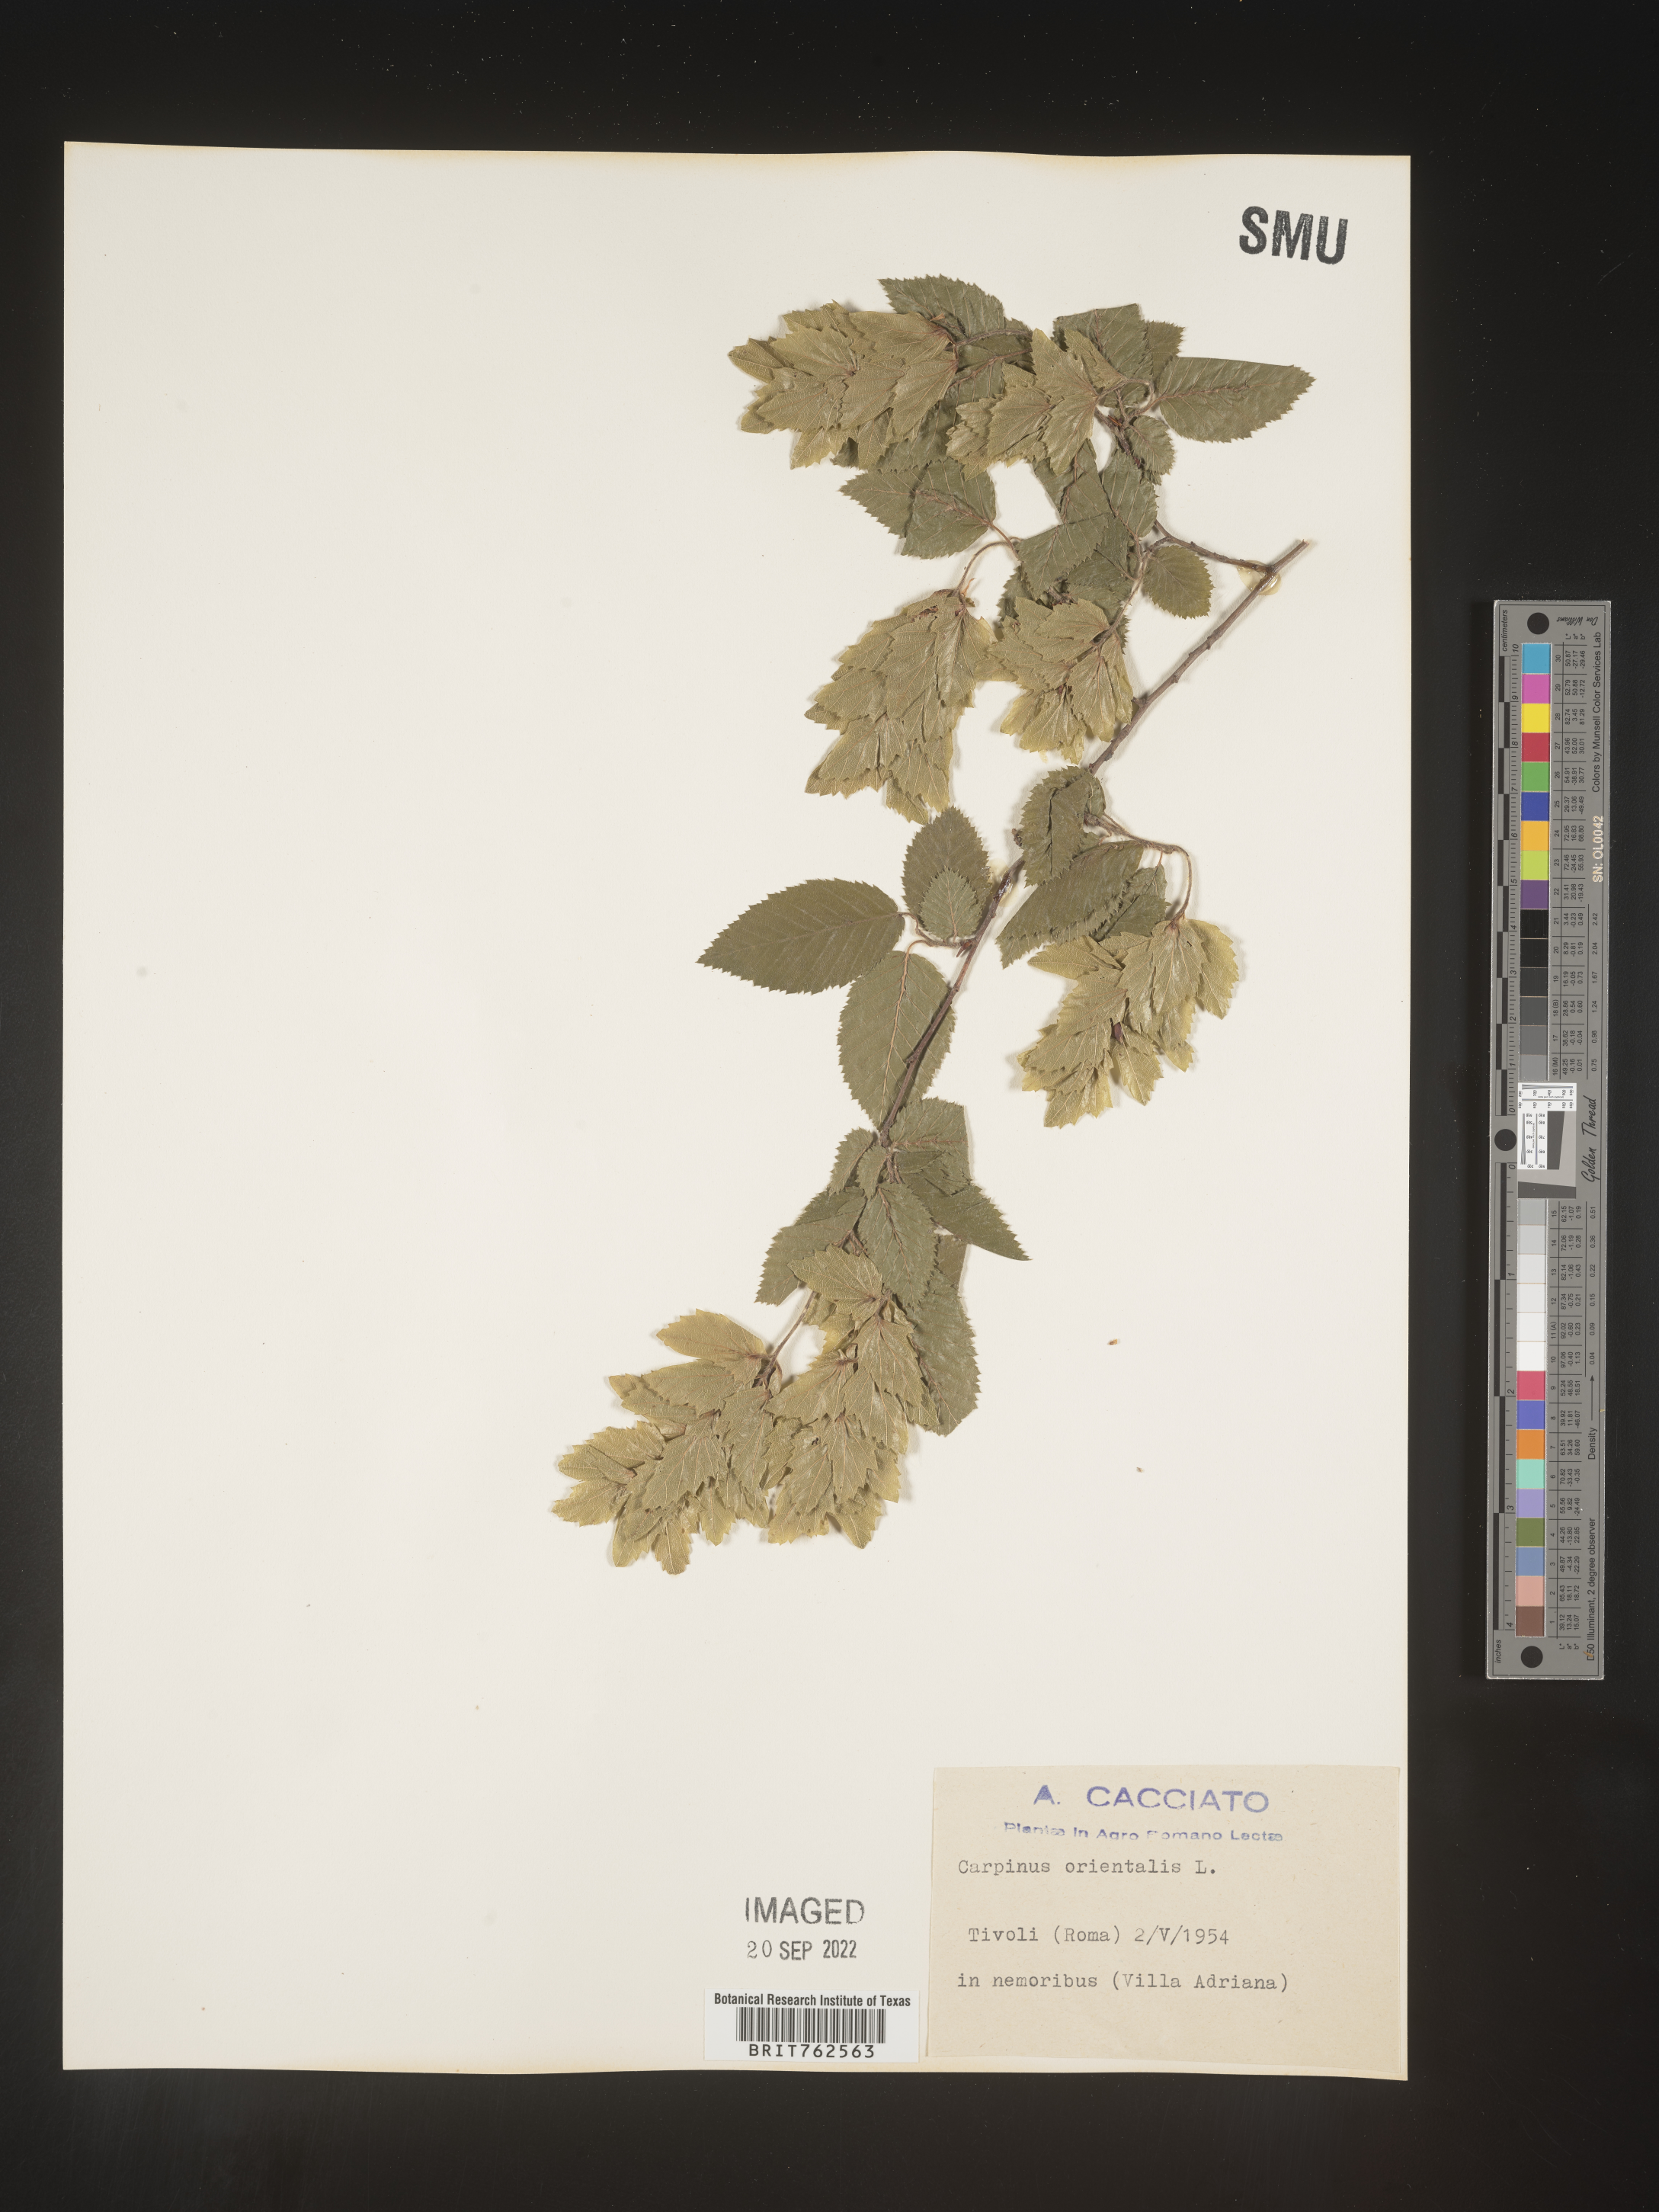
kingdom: Plantae
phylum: Tracheophyta
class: Magnoliopsida
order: Fagales
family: Betulaceae
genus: Carpinus
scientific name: Carpinus
